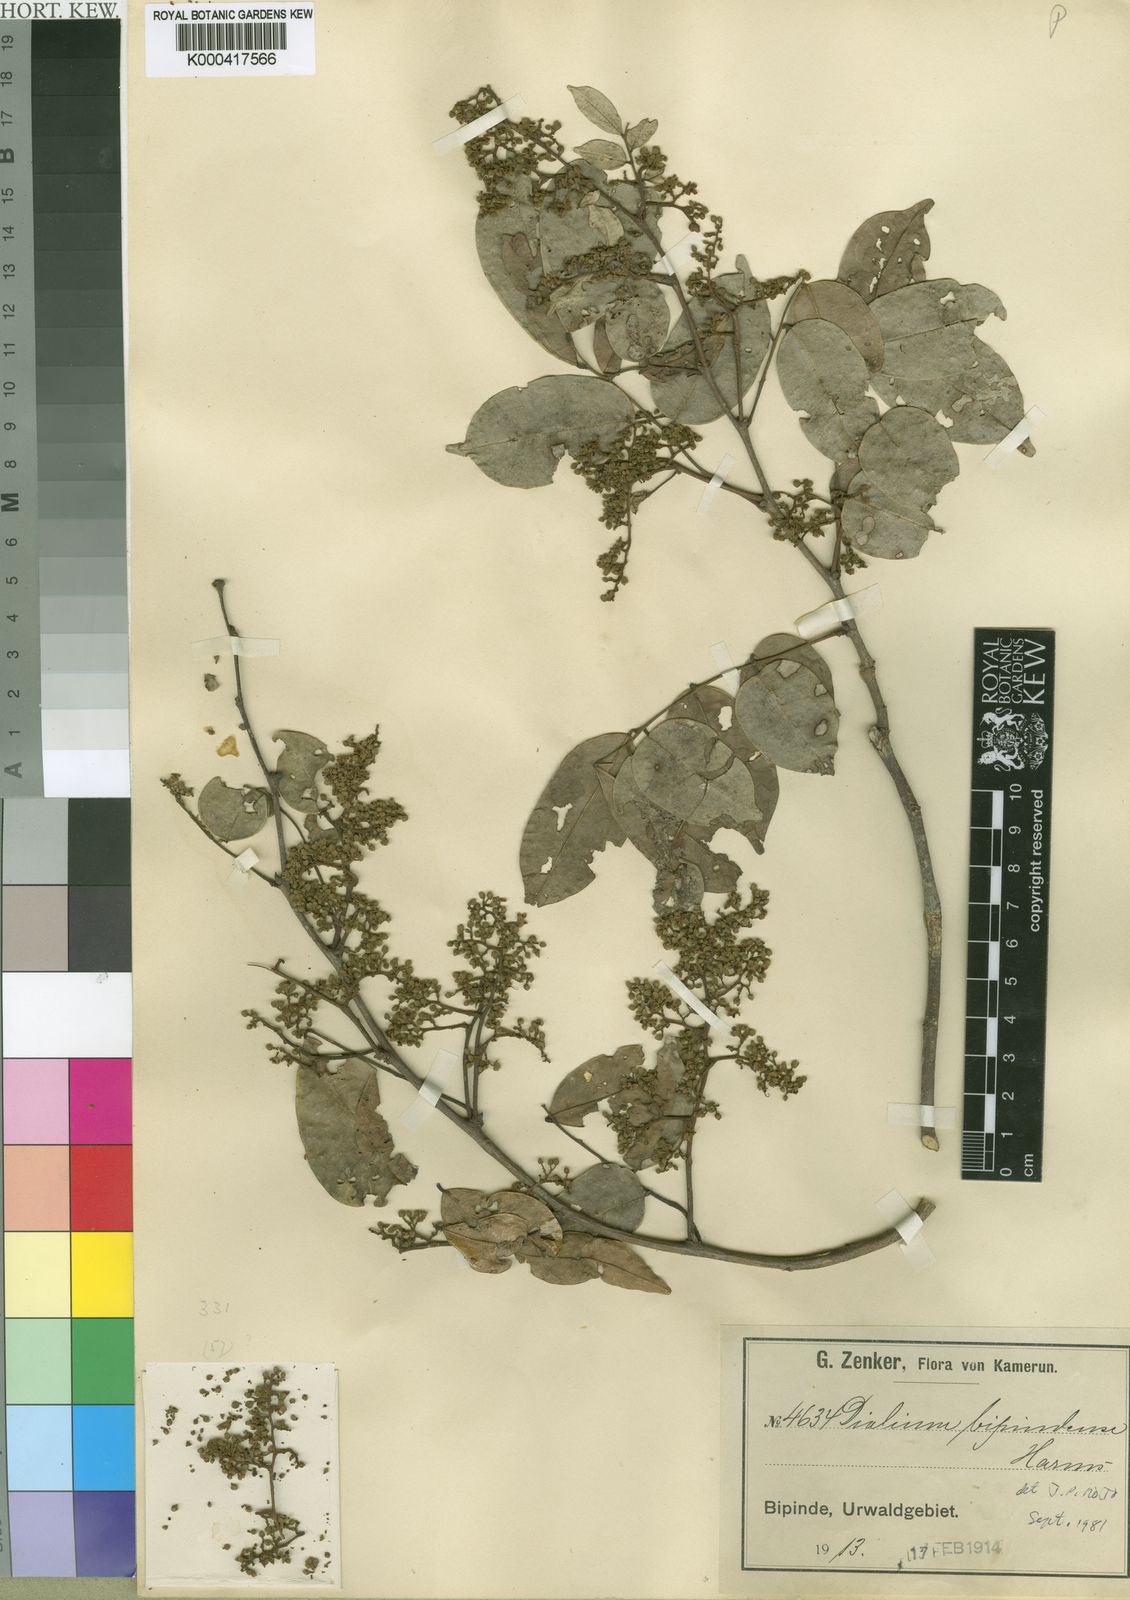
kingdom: Plantae
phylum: Tracheophyta
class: Magnoliopsida
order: Fabales
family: Fabaceae
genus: Dialium
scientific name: Dialium bipindense
